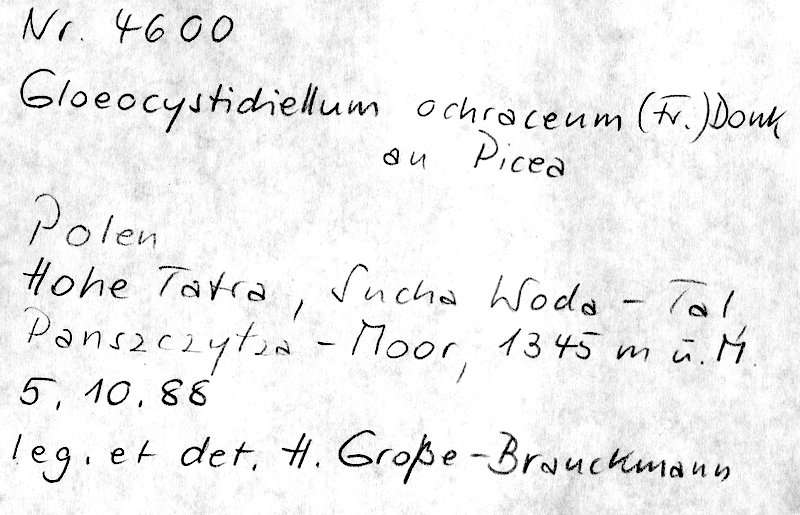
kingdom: Plantae
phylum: Tracheophyta
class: Pinopsida
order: Pinales
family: Pinaceae
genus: Picea
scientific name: Picea abies
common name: Norway spruce
